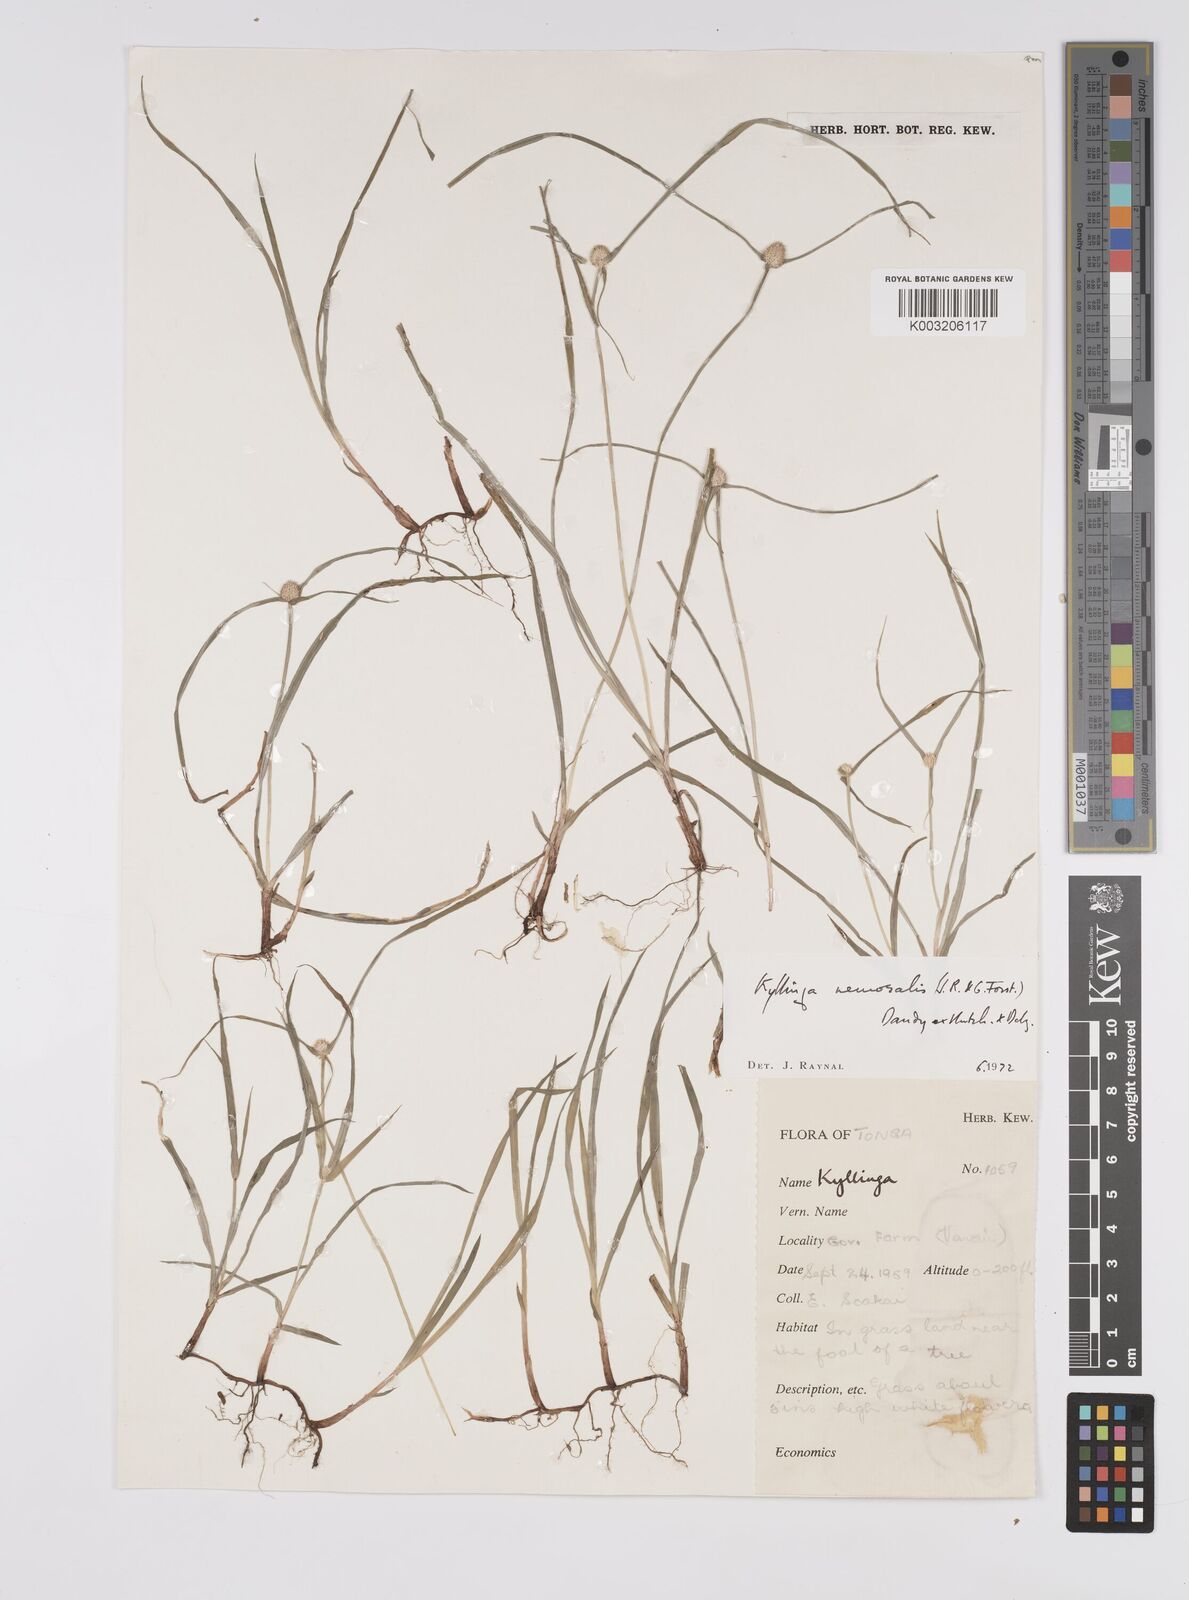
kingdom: Plantae
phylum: Tracheophyta
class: Liliopsida
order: Poales
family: Cyperaceae
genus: Cyperus
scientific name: Cyperus nemoralis
